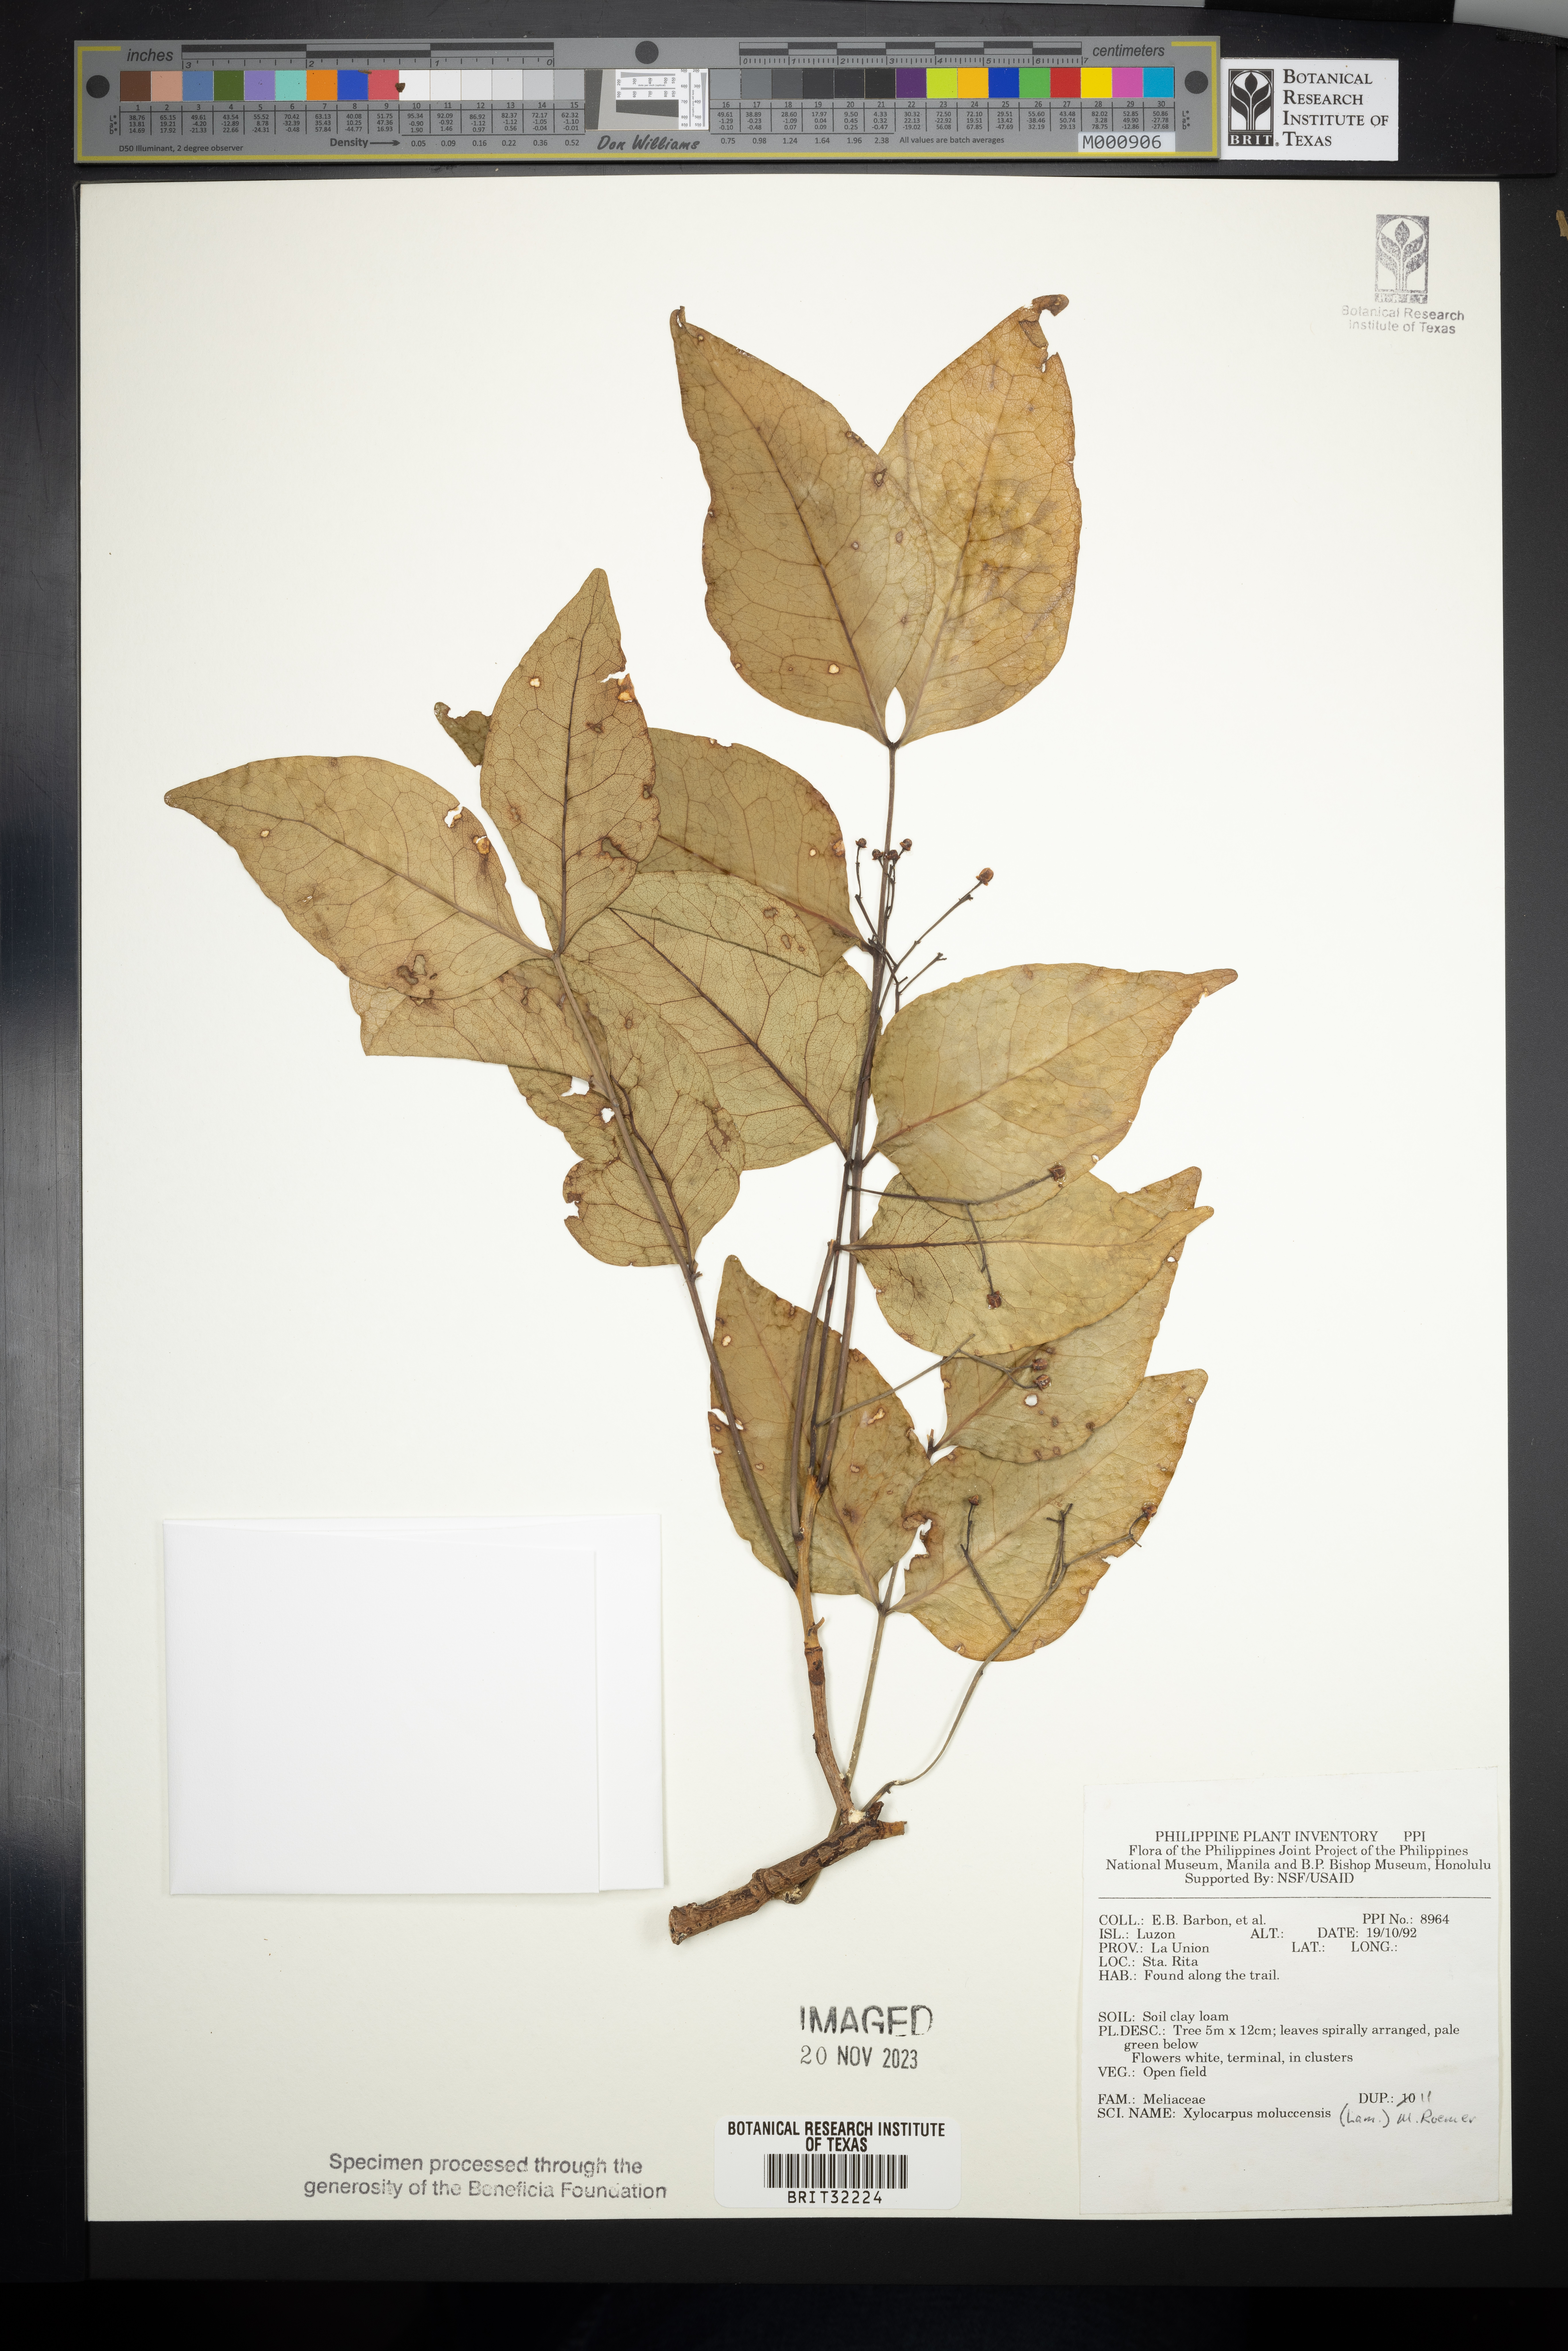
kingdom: Plantae
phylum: Tracheophyta
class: Magnoliopsida
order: Sapindales
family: Meliaceae
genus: Xylocarpus
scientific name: Xylocarpus moluccensis
